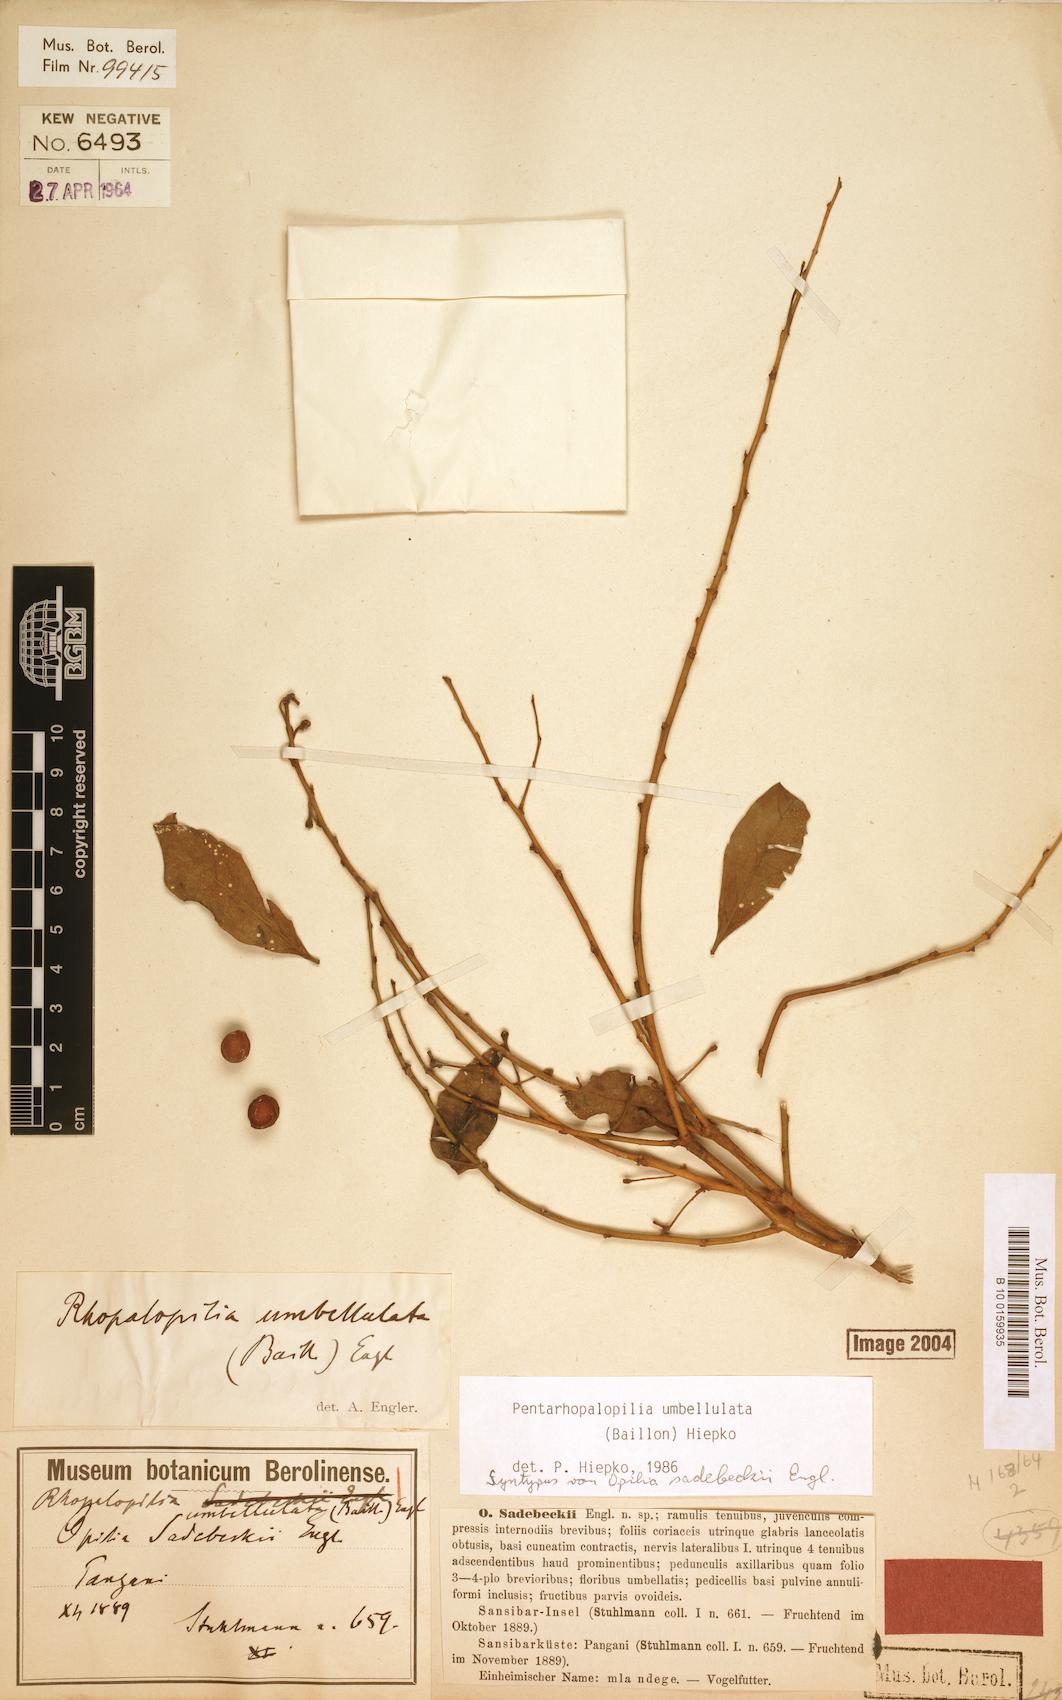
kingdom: Plantae
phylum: Tracheophyta
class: Magnoliopsida
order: Santalales
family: Opiliaceae
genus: Pentarhopalopilia
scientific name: Pentarhopalopilia umbellulata
